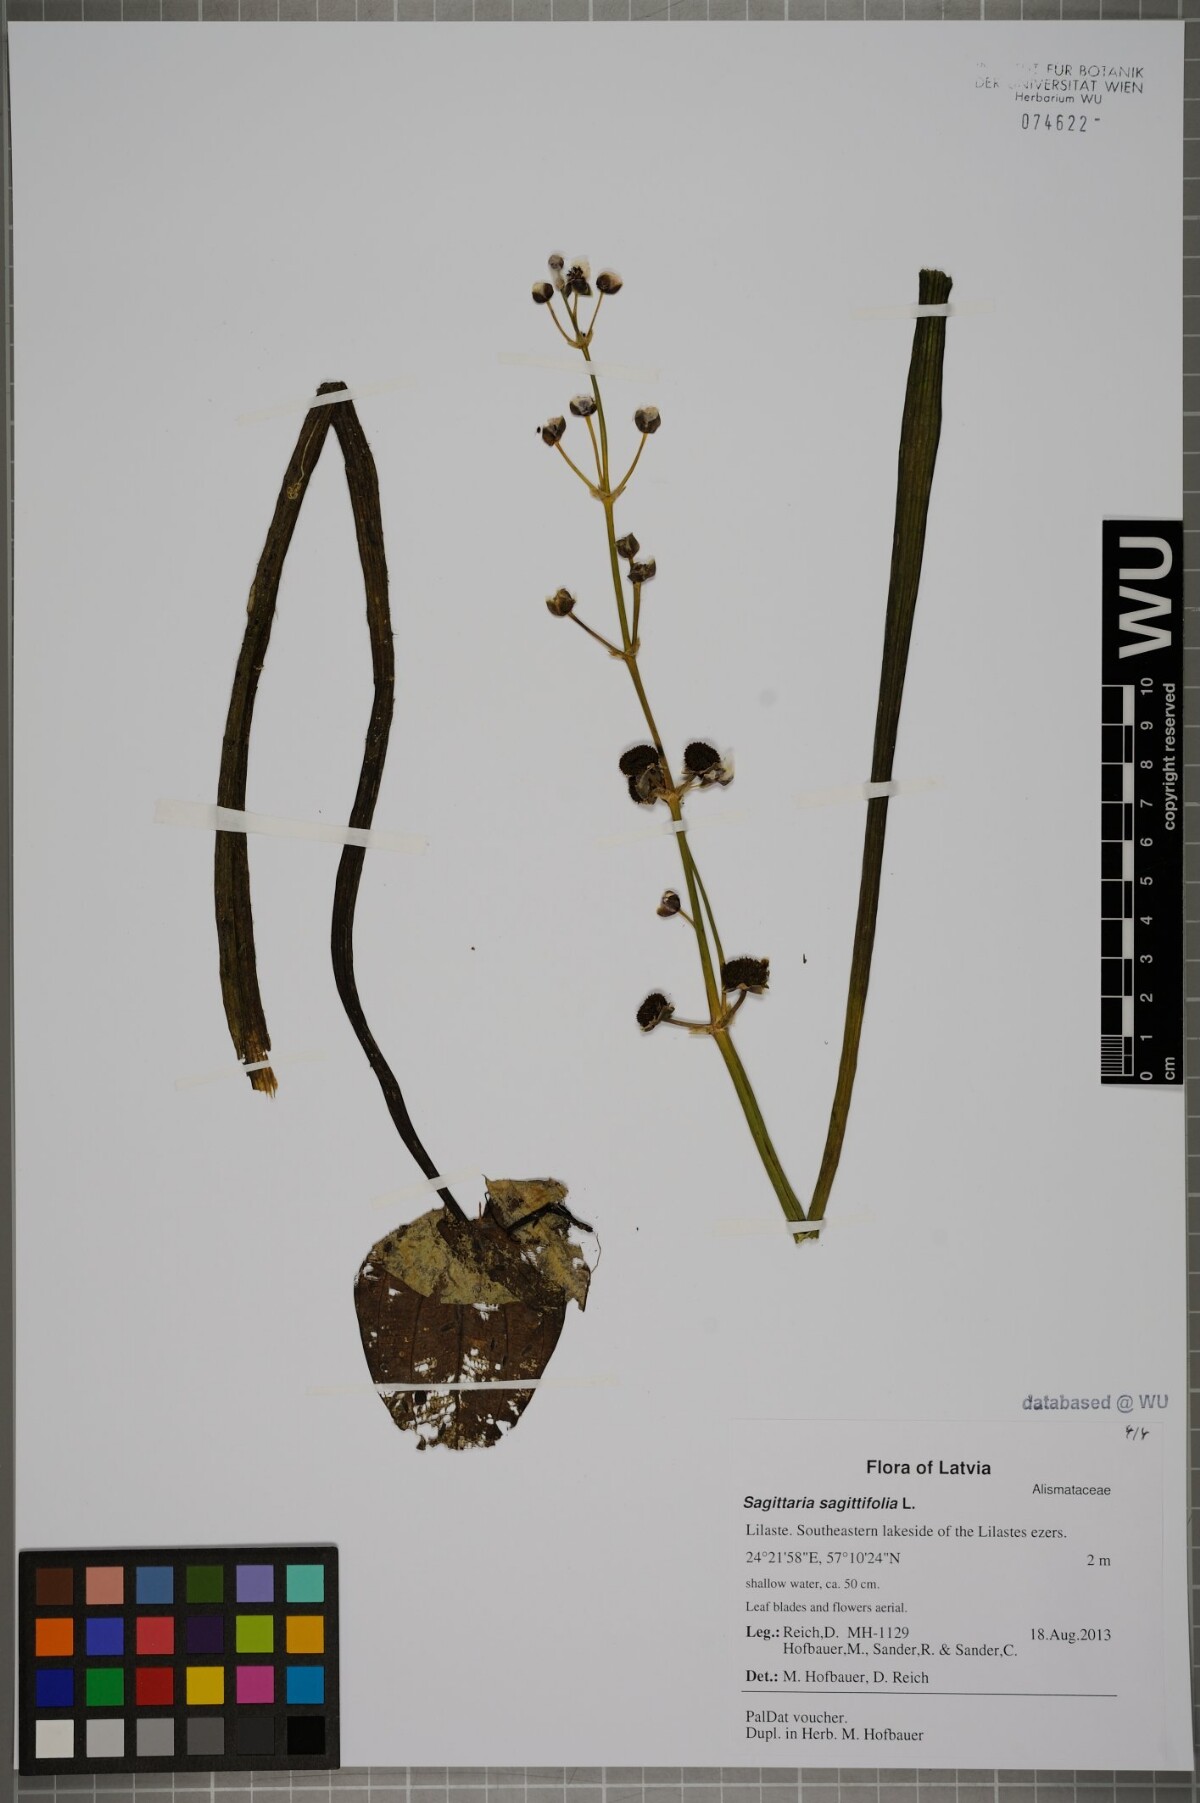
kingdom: Plantae
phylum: Tracheophyta
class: Liliopsida
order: Alismatales
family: Alismataceae
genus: Sagittaria
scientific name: Sagittaria sagittifolia
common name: Arrowhead
